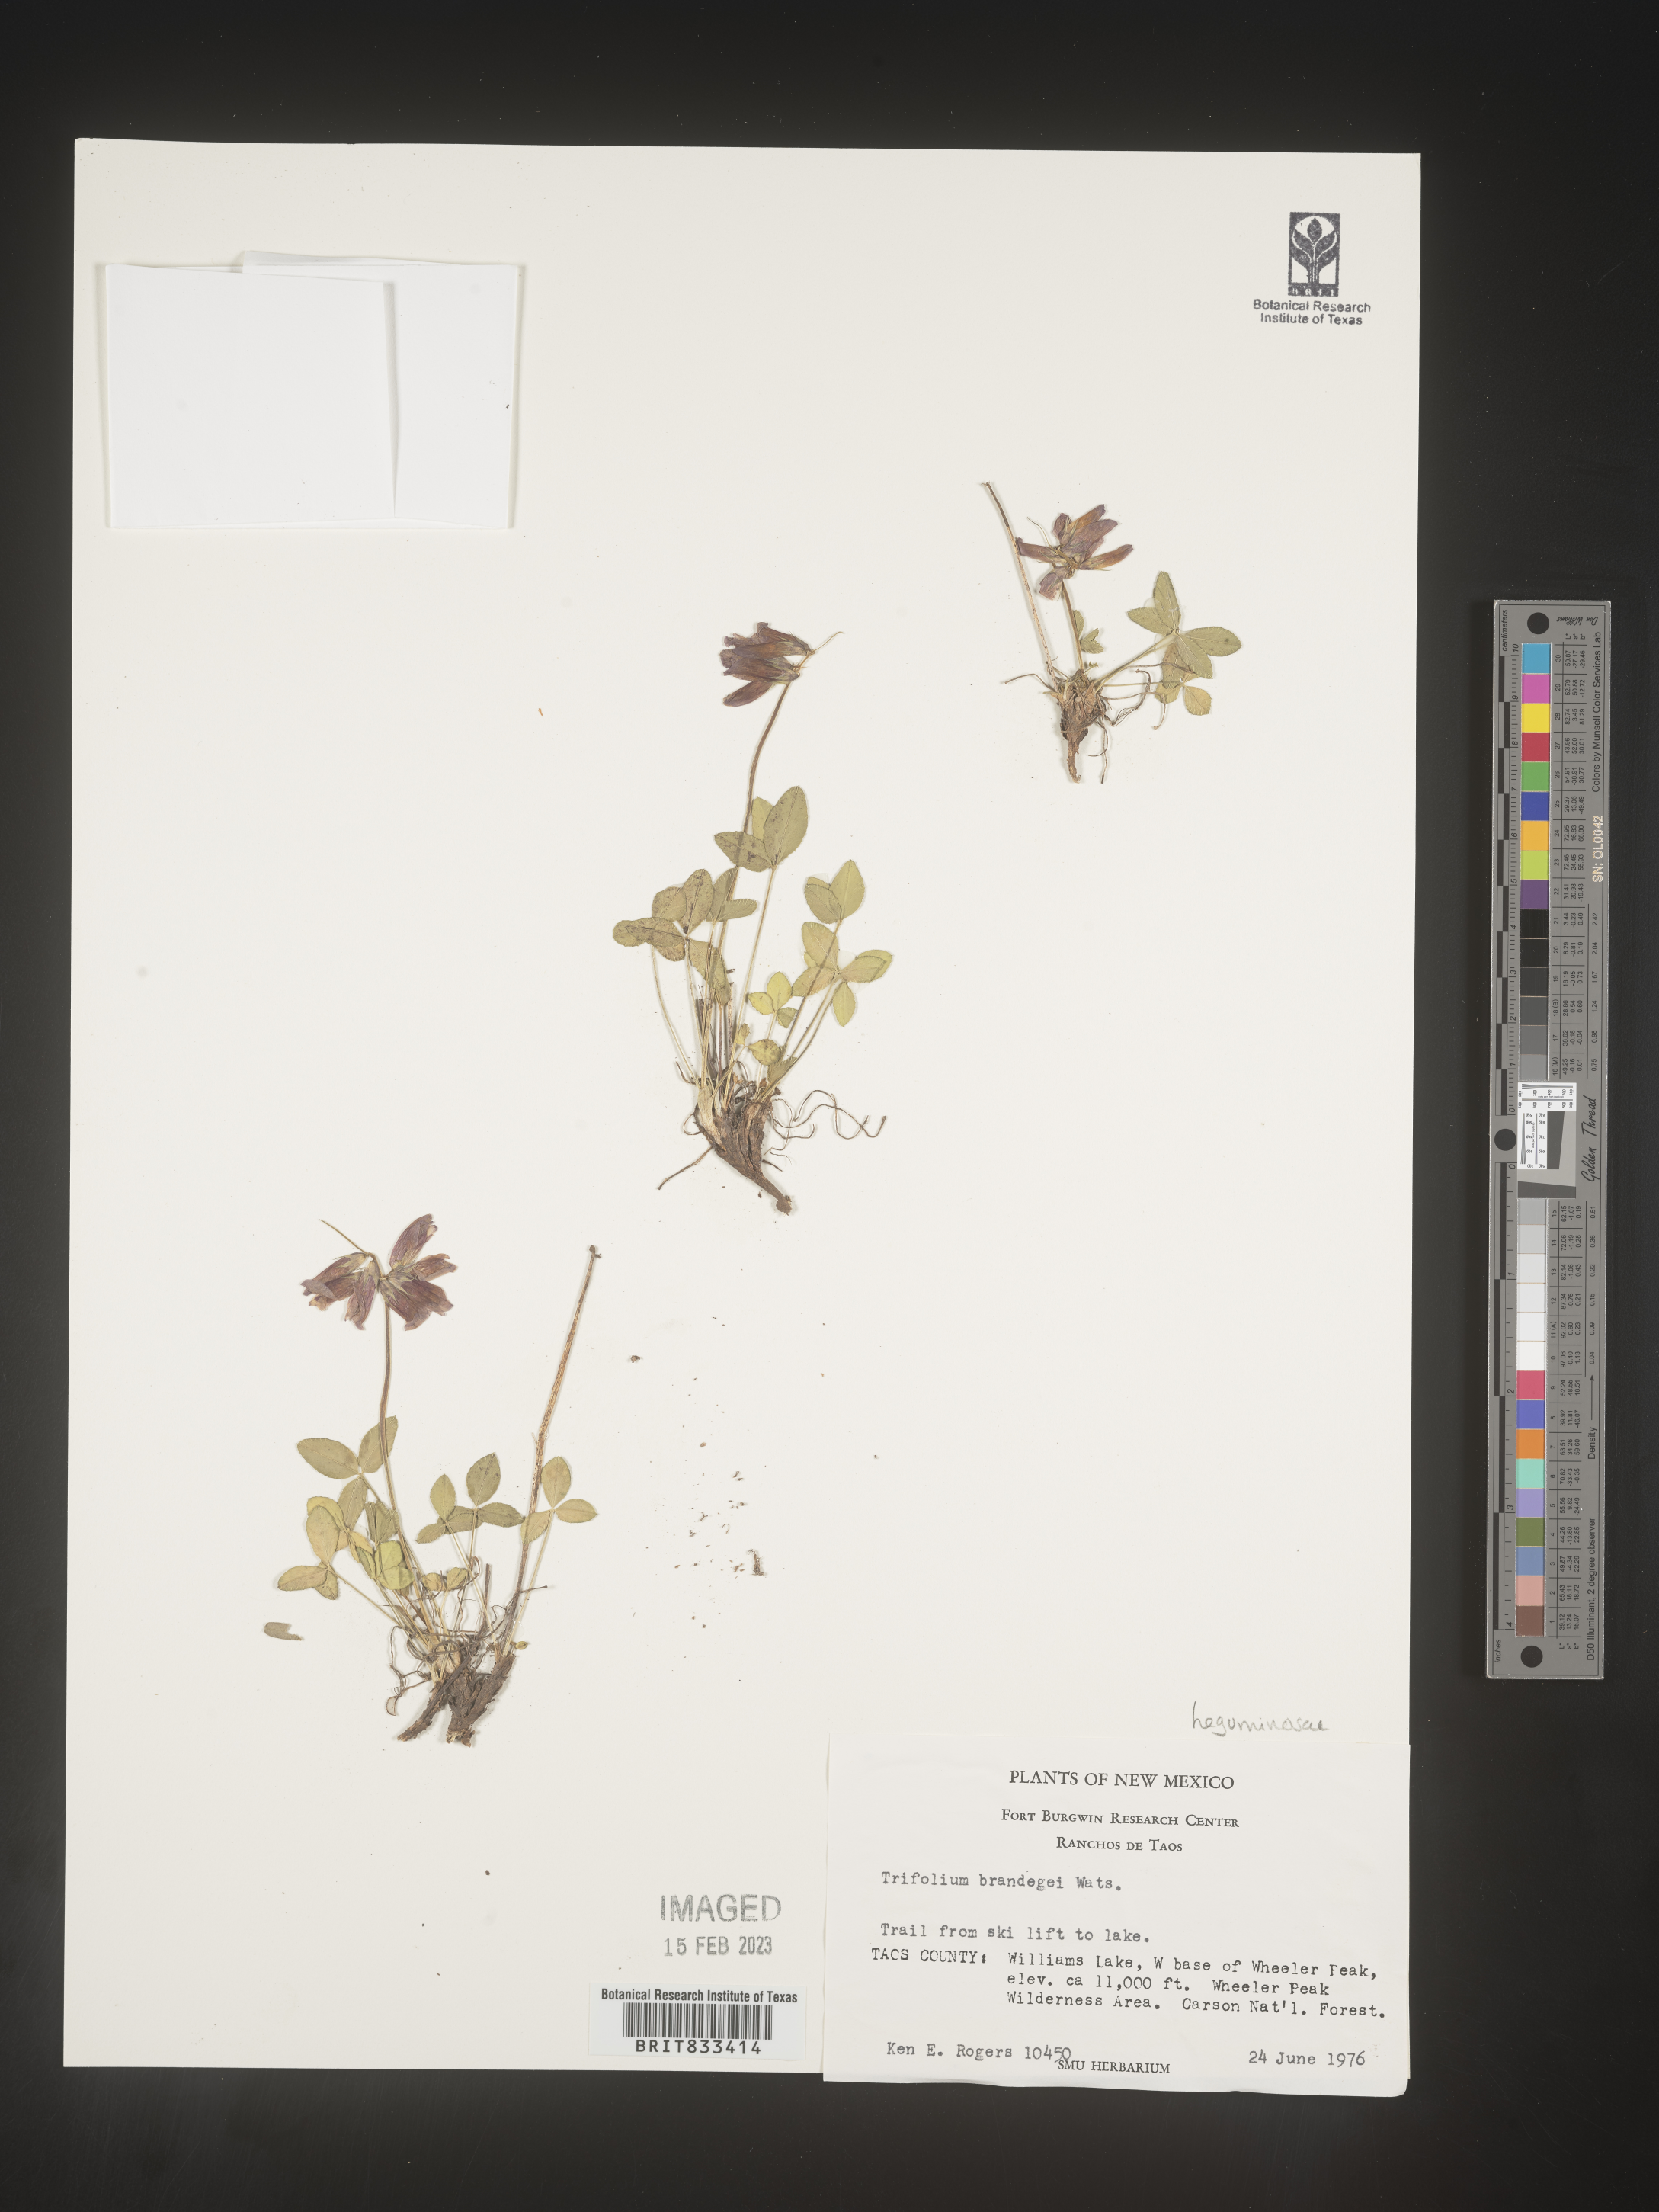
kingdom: Plantae
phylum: Tracheophyta
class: Magnoliopsida
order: Fabales
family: Fabaceae
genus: Trifolium
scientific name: Trifolium
